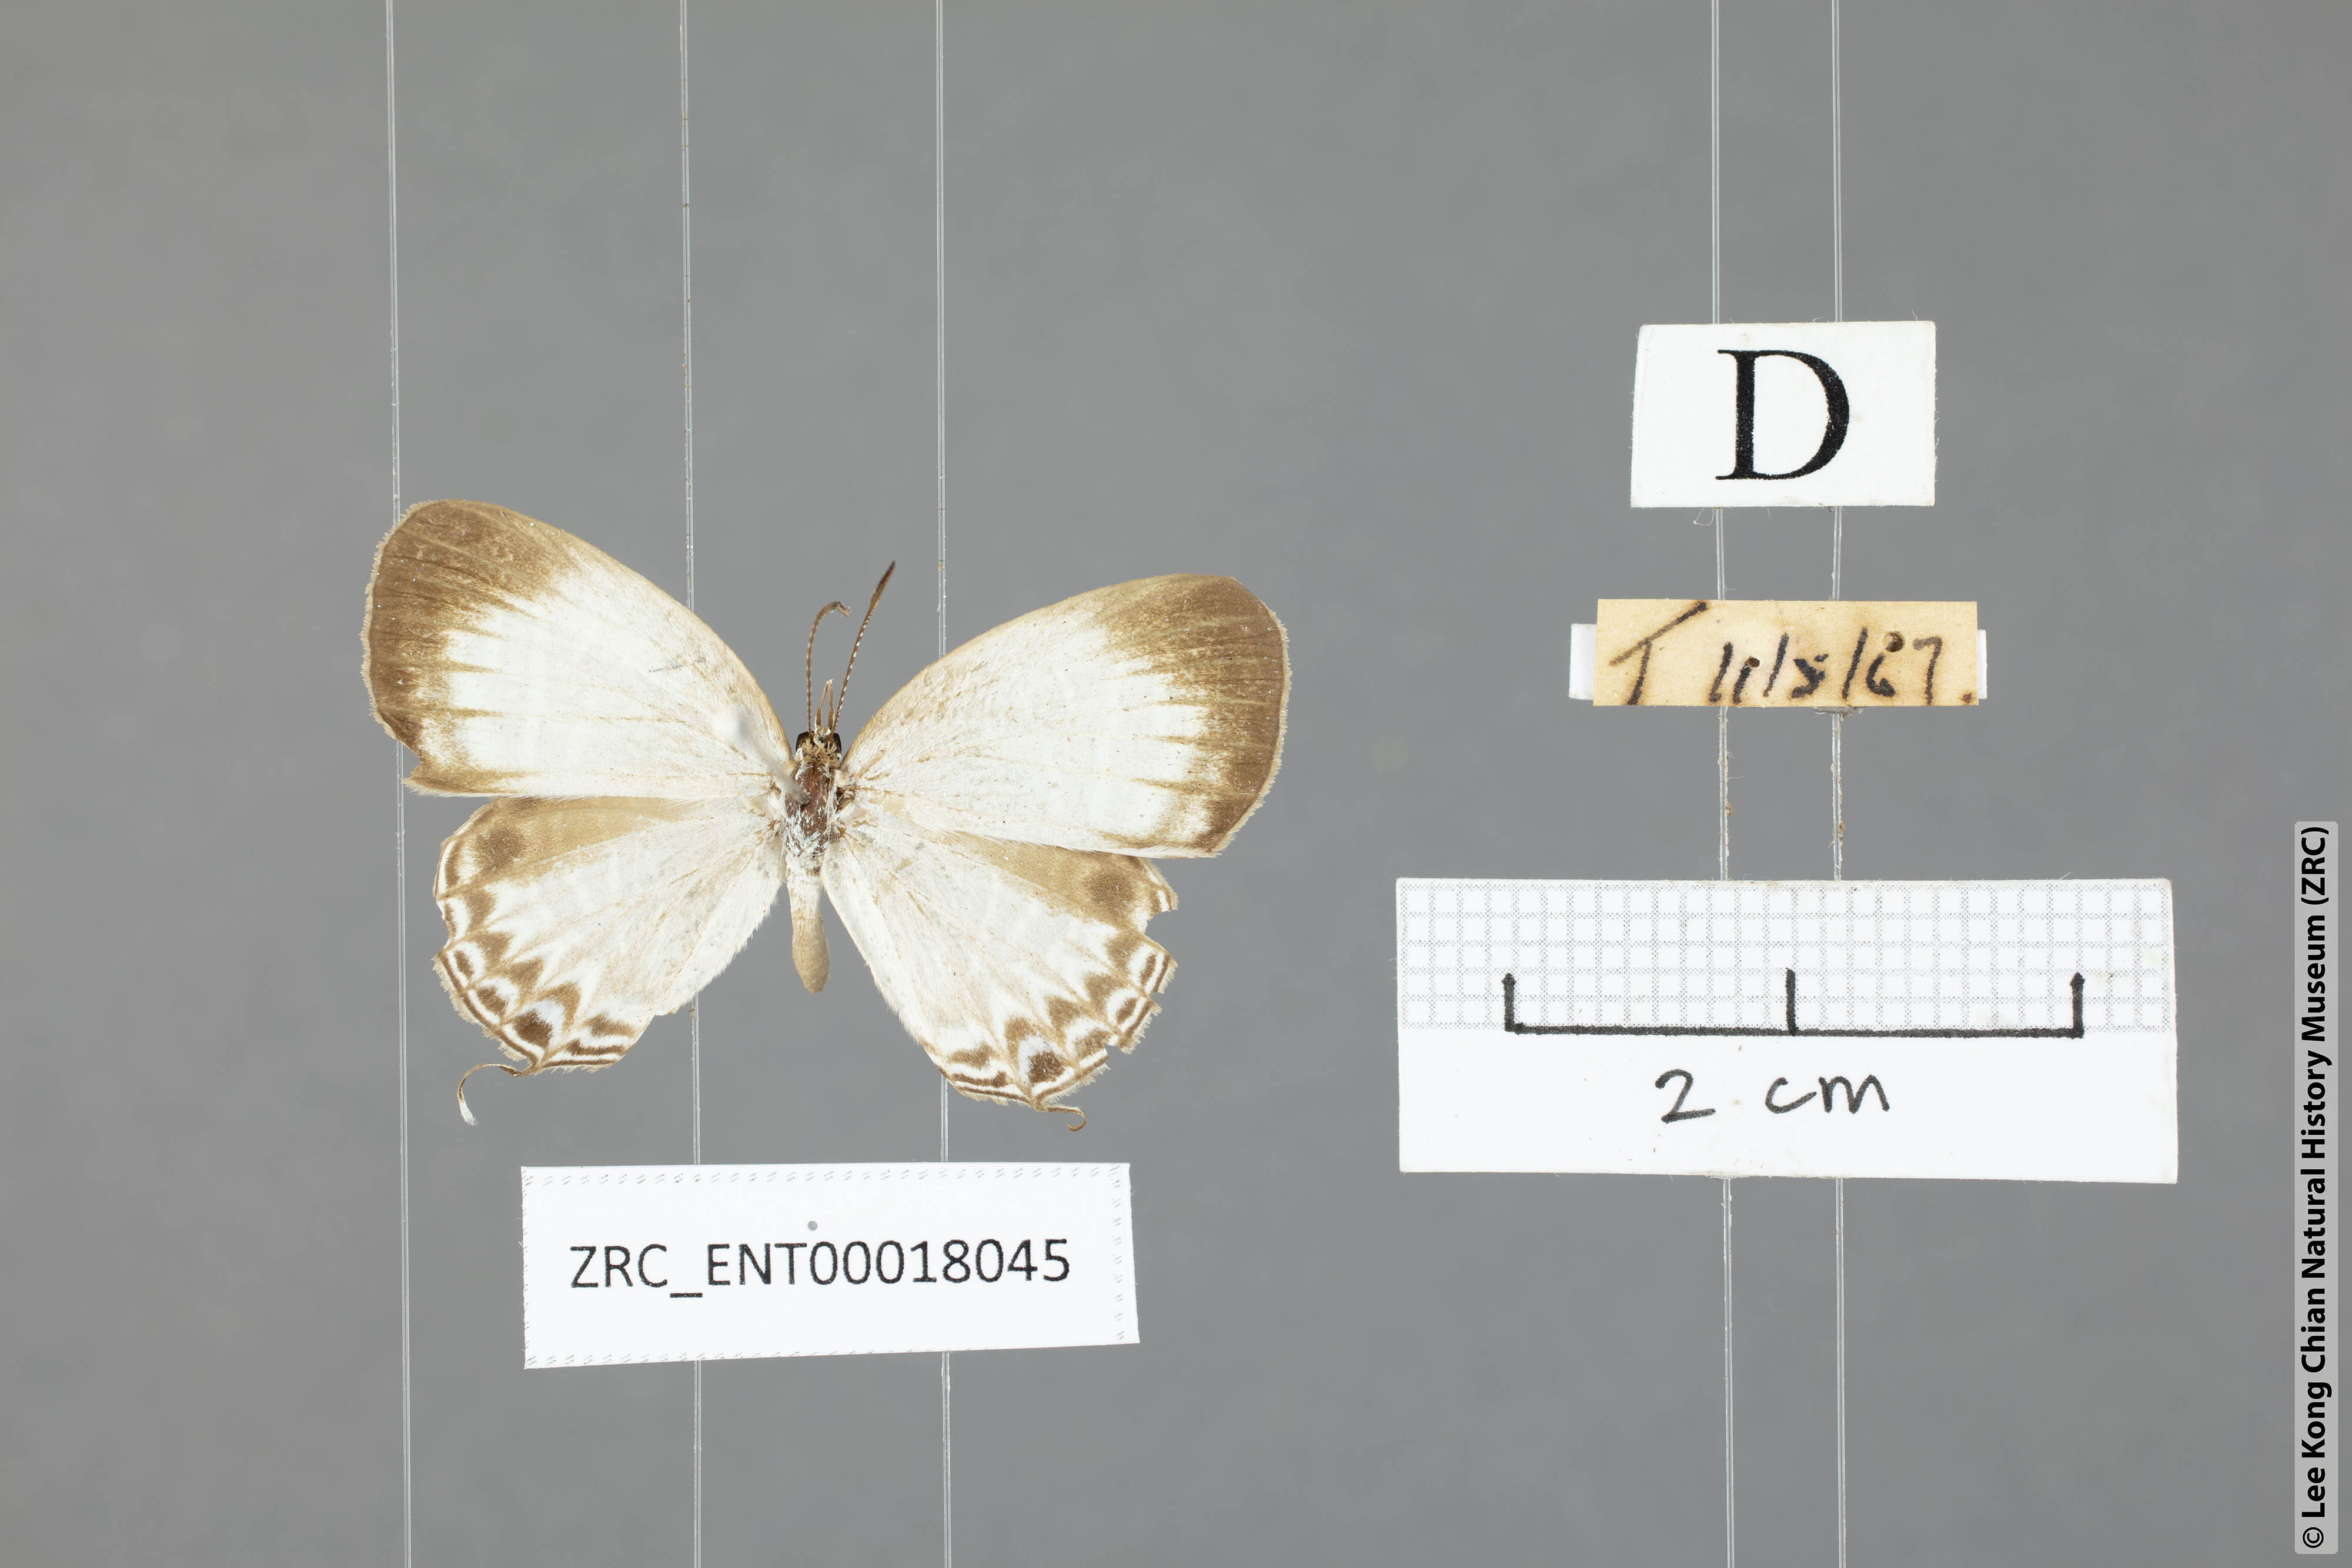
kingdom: Animalia
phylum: Arthropoda
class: Insecta
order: Lepidoptera
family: Lycaenidae
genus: Jamides
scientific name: Jamides aratus
